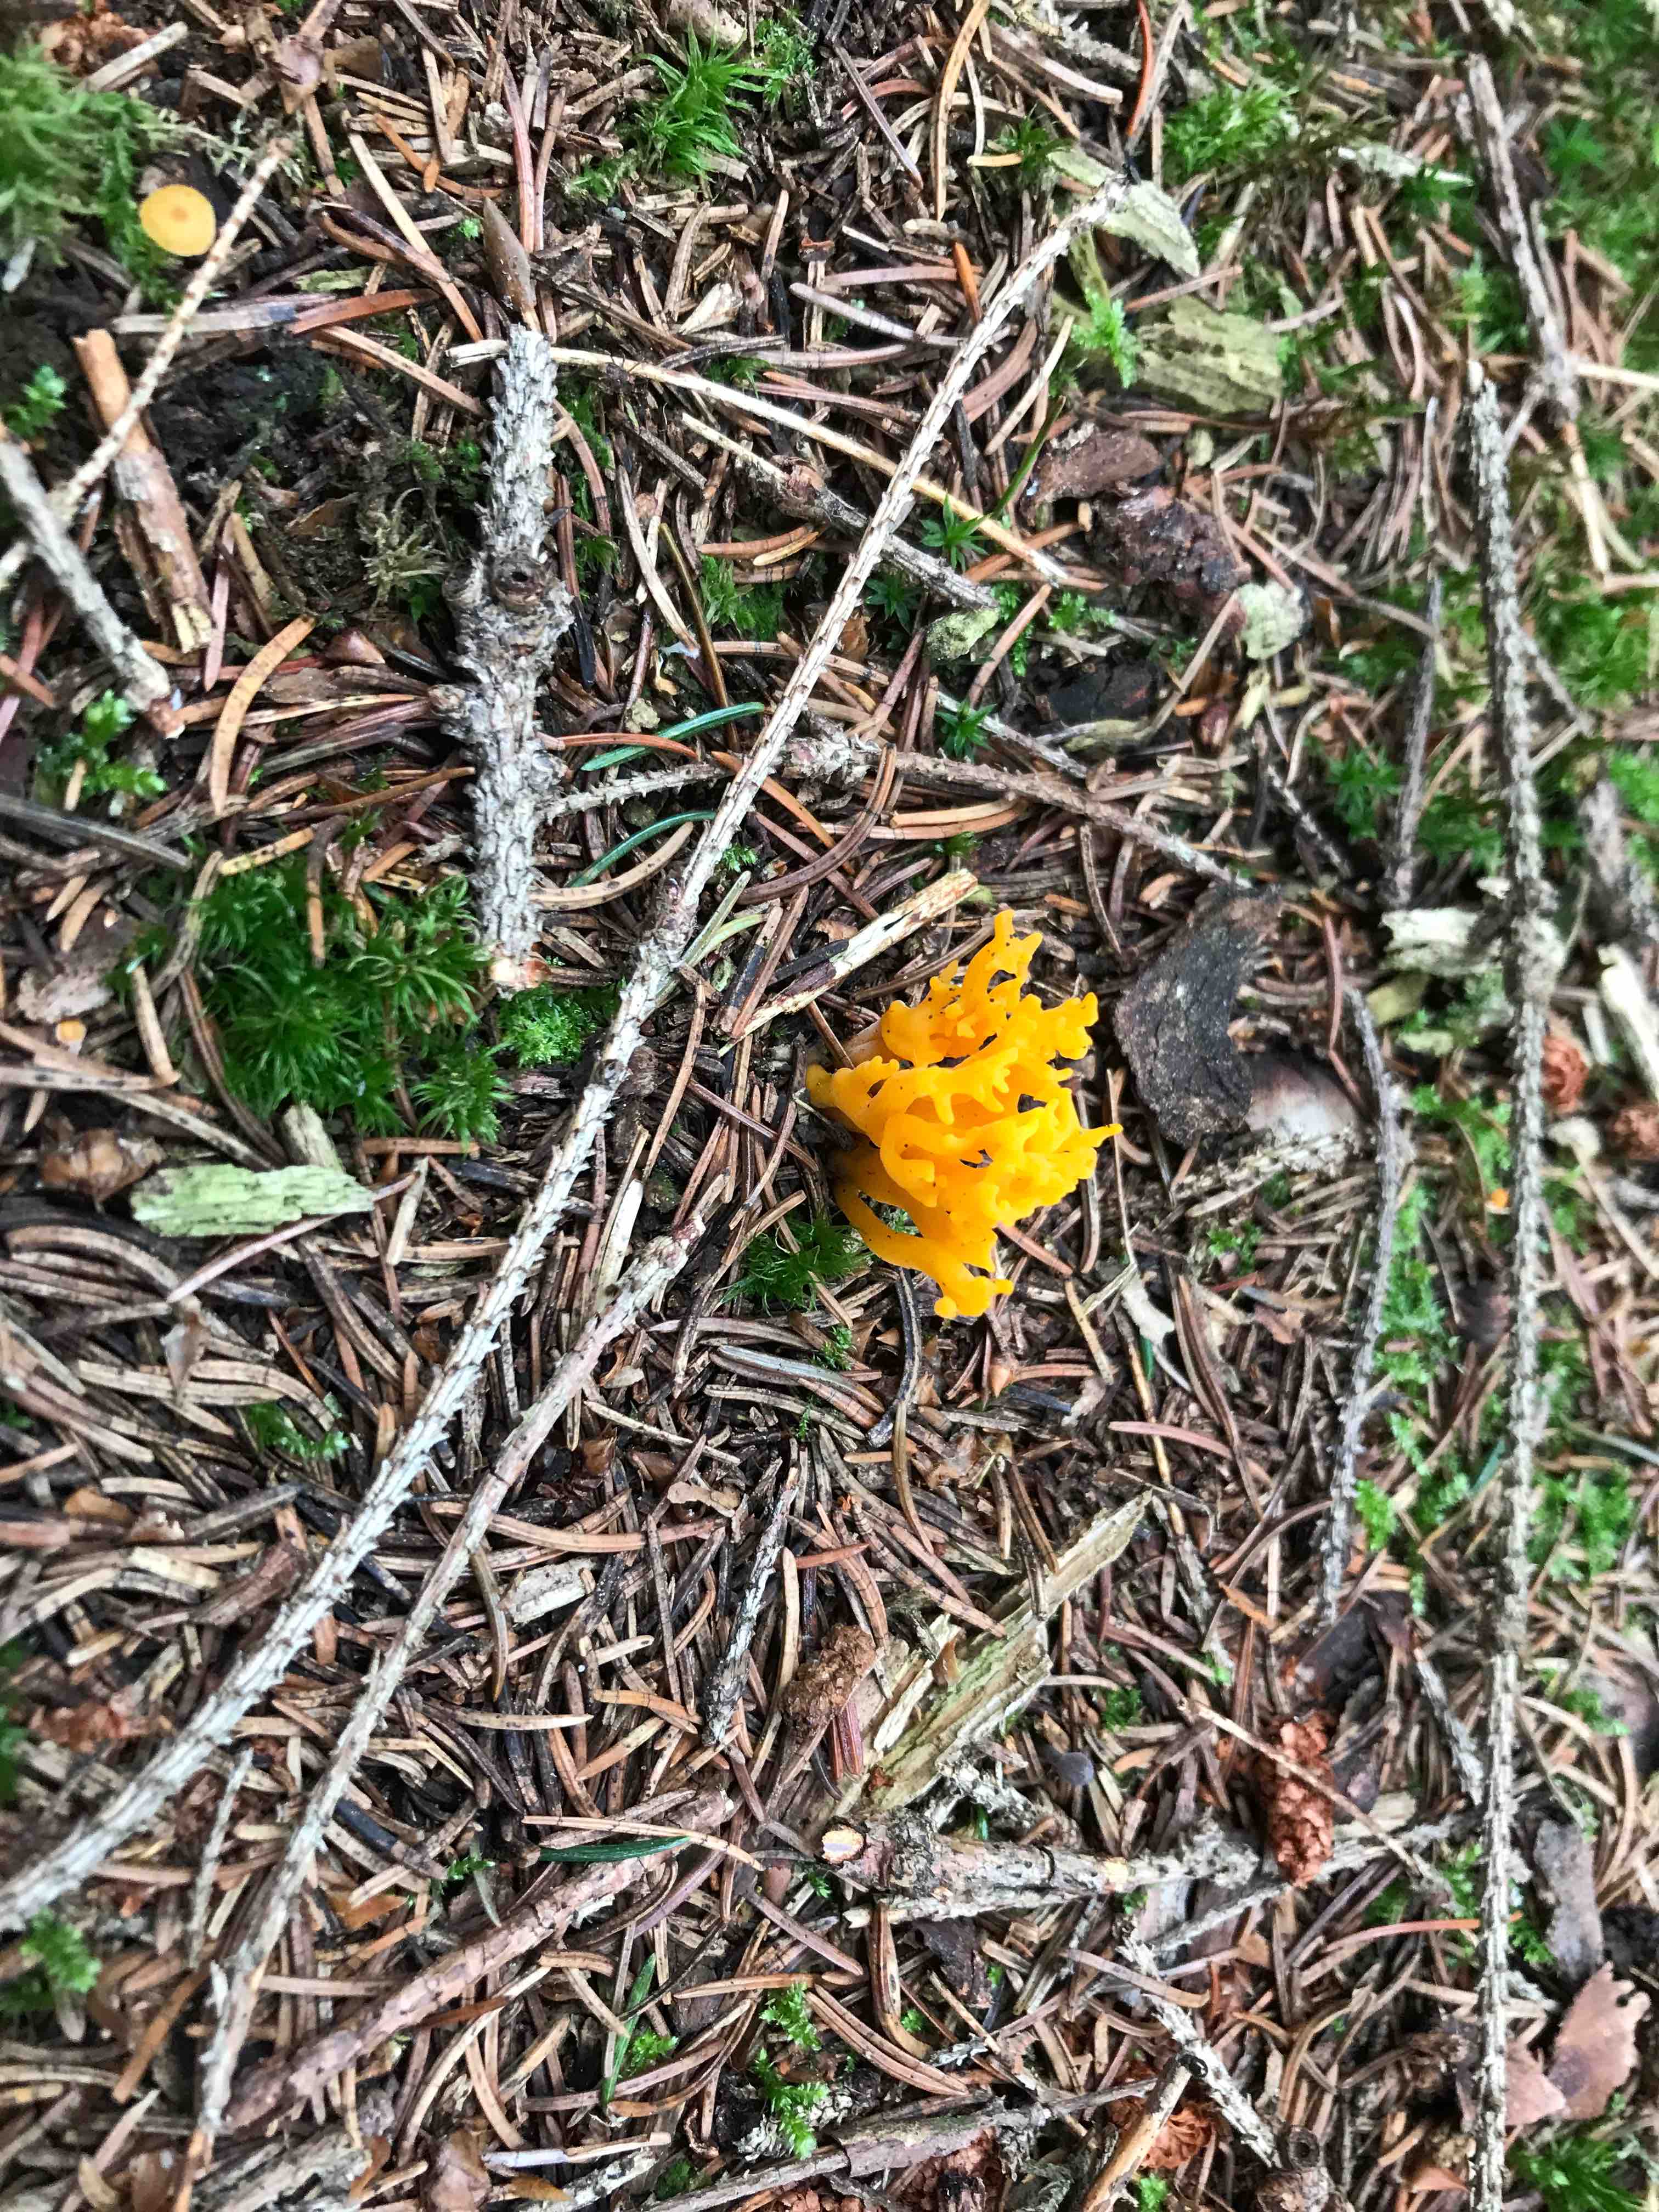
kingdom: Fungi
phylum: Basidiomycota
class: Dacrymycetes
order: Dacrymycetales
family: Dacrymycetaceae
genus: Calocera
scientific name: Calocera viscosa
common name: almindelig guldgaffel
